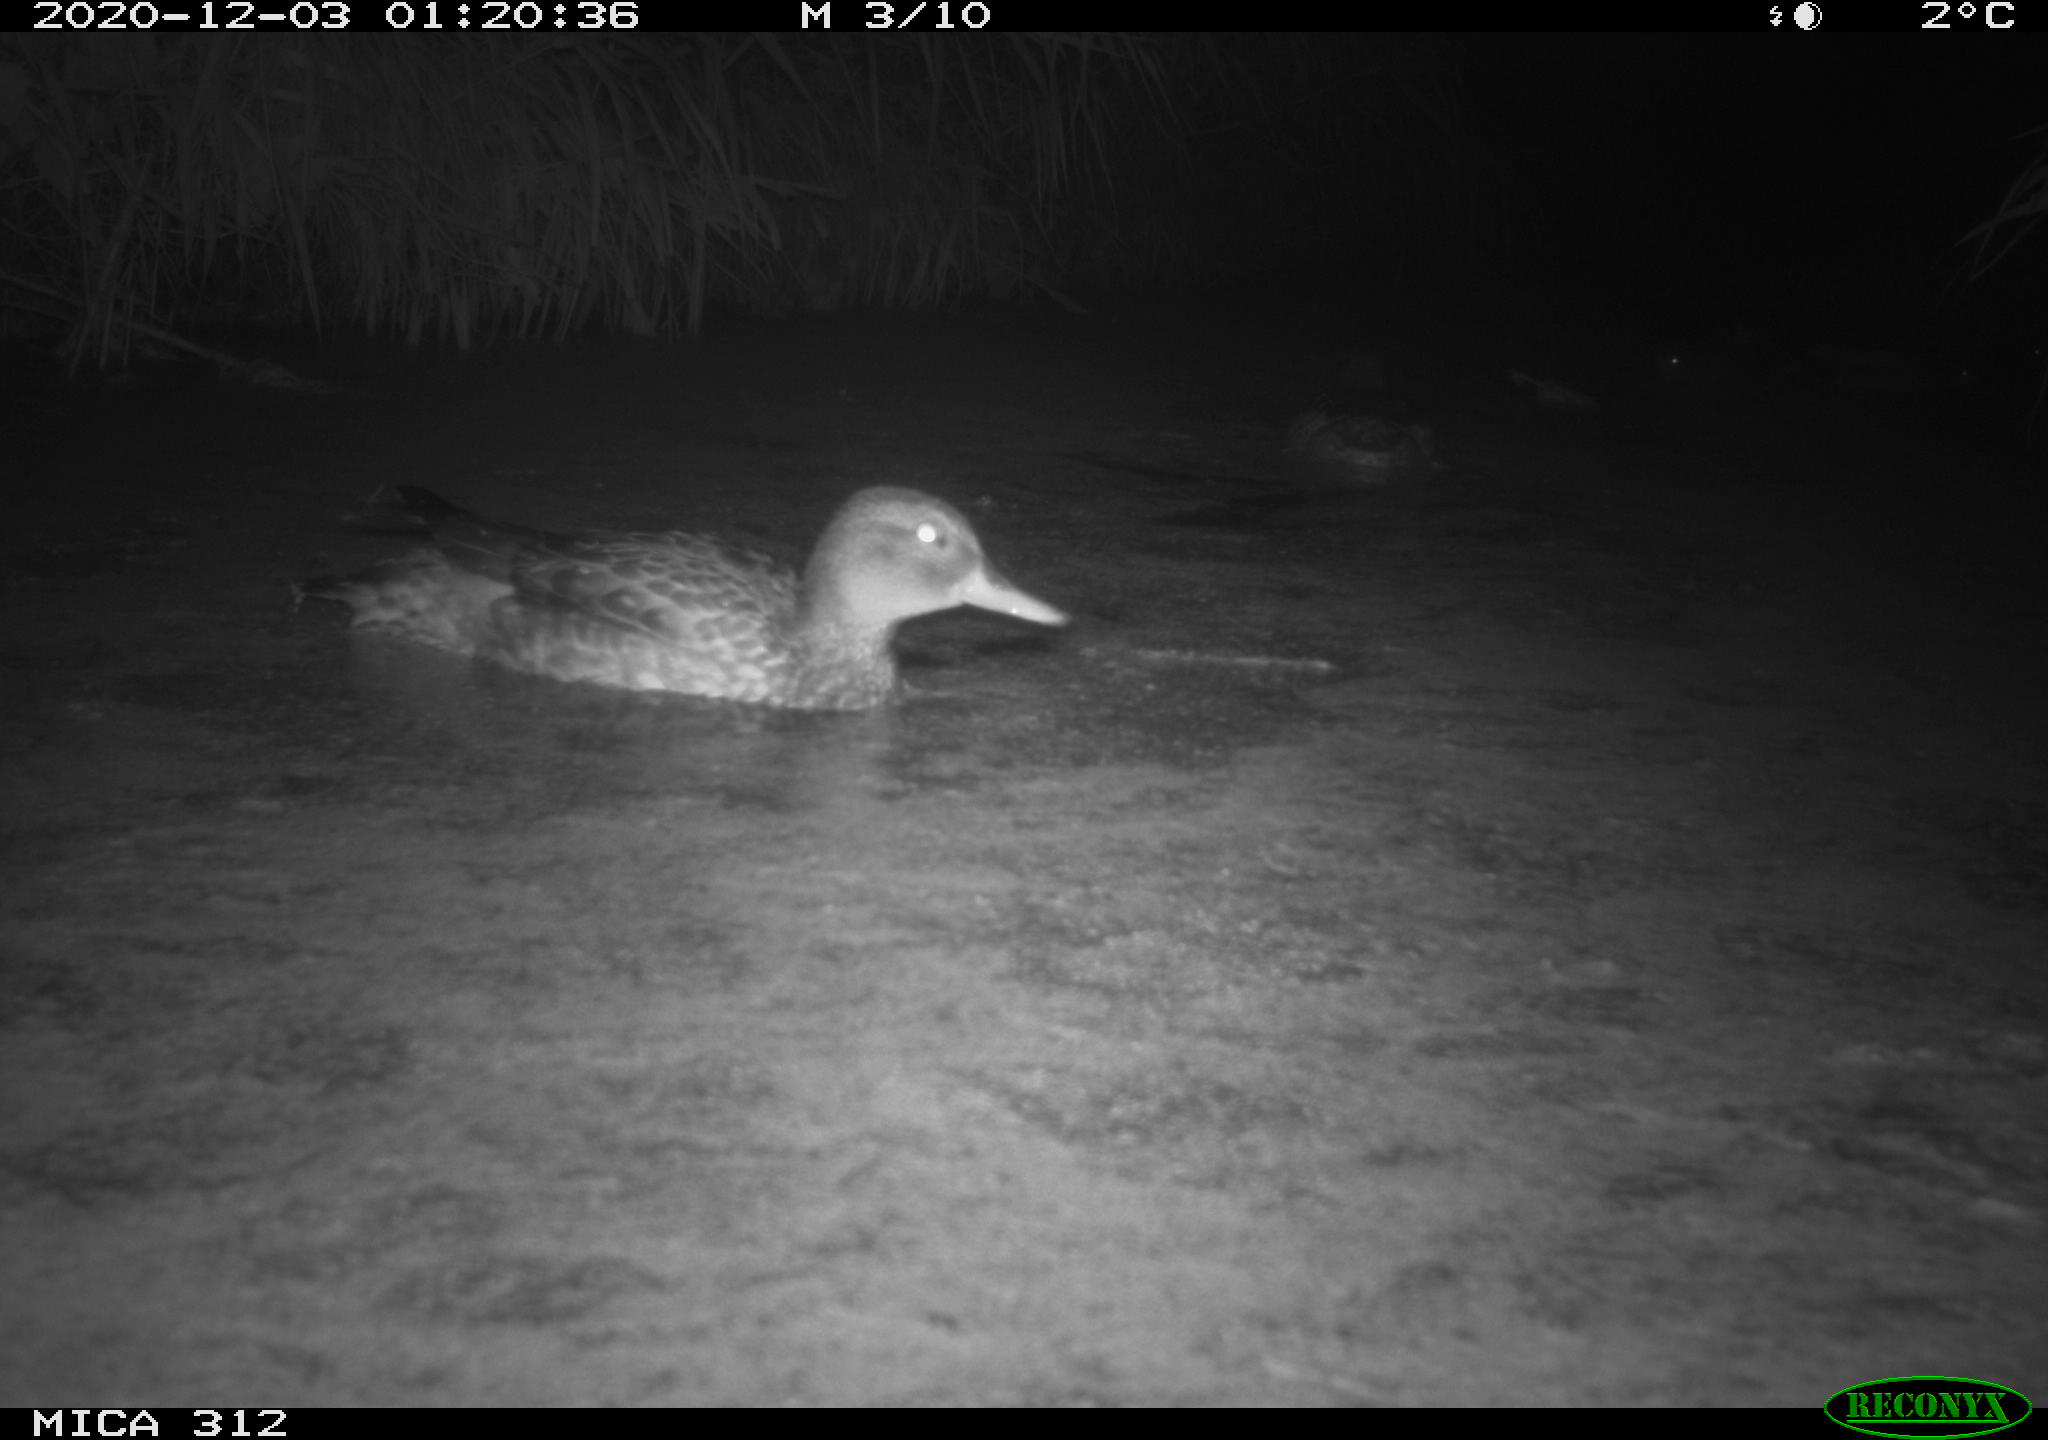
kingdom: Animalia
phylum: Chordata
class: Aves
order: Anseriformes
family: Anatidae
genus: Anas
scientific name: Anas platyrhynchos
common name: Mallard
